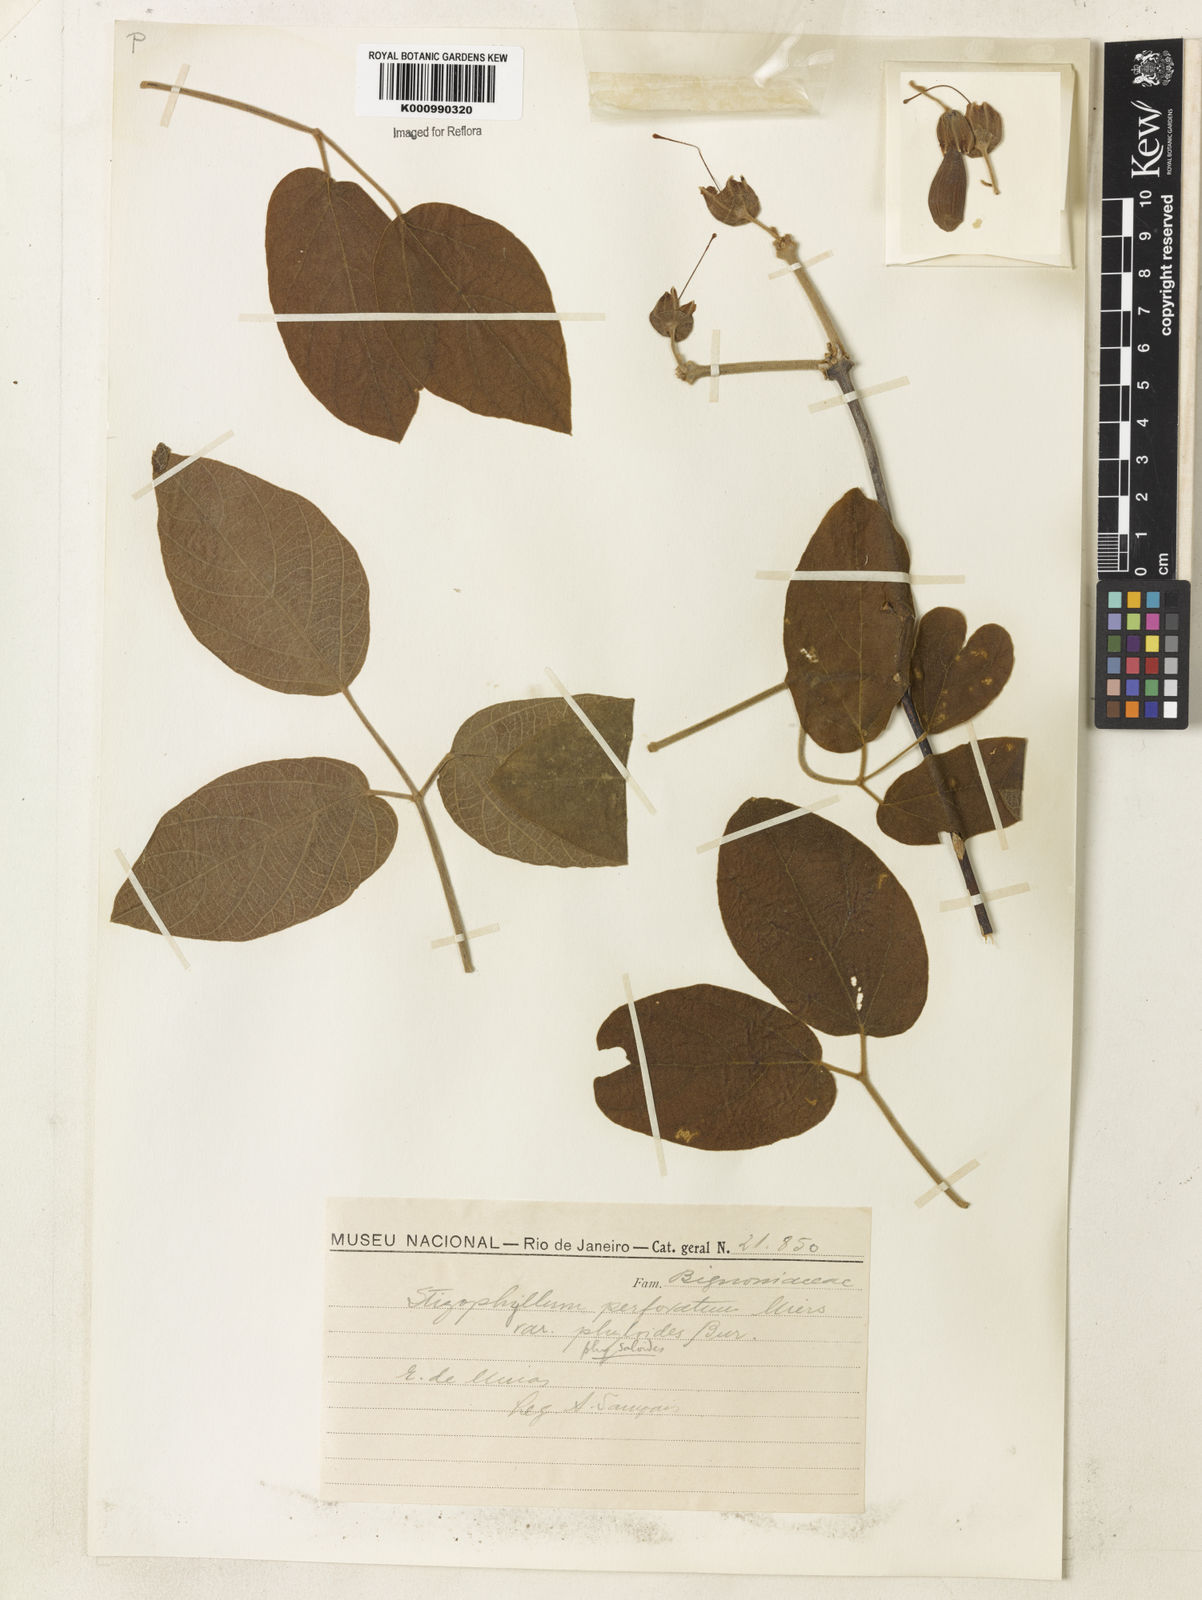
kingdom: Plantae
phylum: Tracheophyta
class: Magnoliopsida
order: Lamiales
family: Bignoniaceae
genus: Stizophyllum
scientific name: Stizophyllum perforatum
